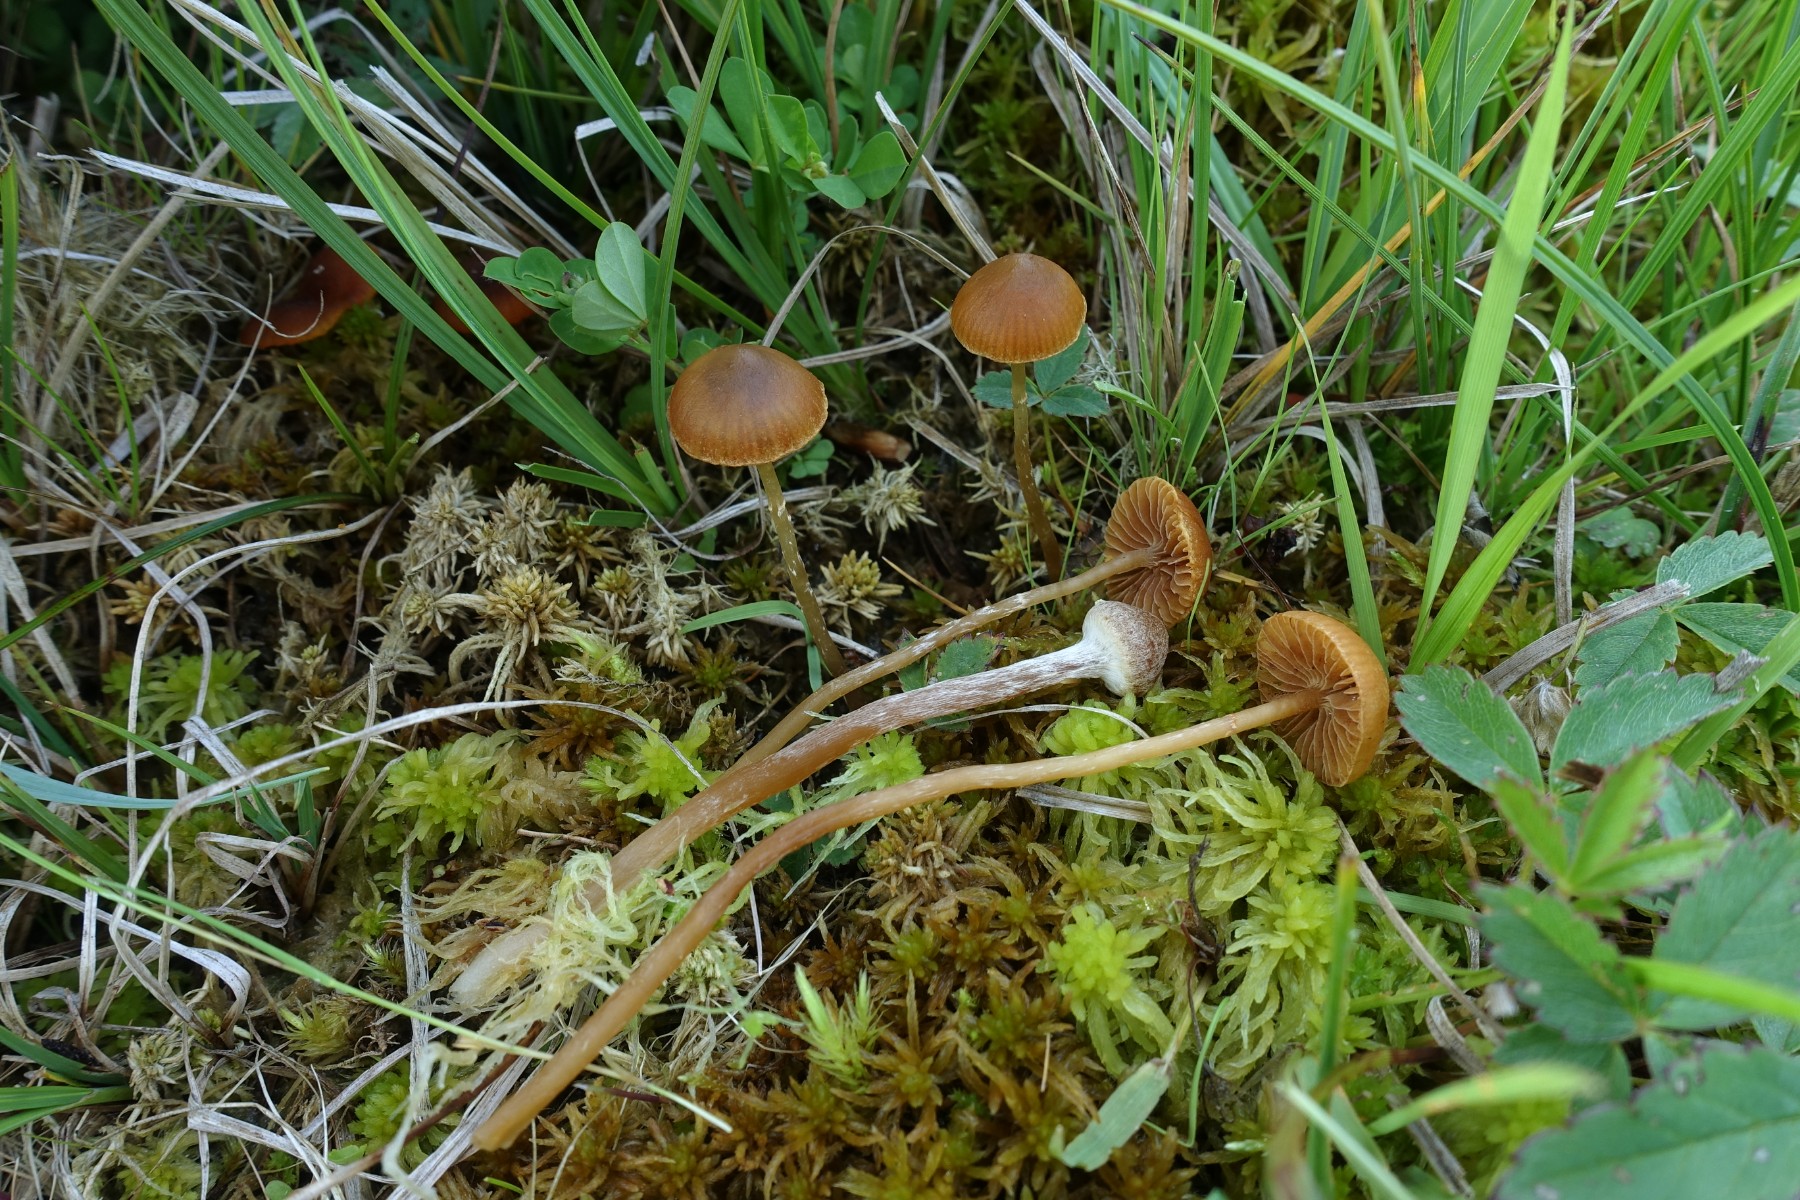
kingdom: Fungi
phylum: Basidiomycota
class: Agaricomycetes
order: Agaricales
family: Hymenogastraceae
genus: Galerina
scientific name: Galerina paludosa
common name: mose-hjelmhat
